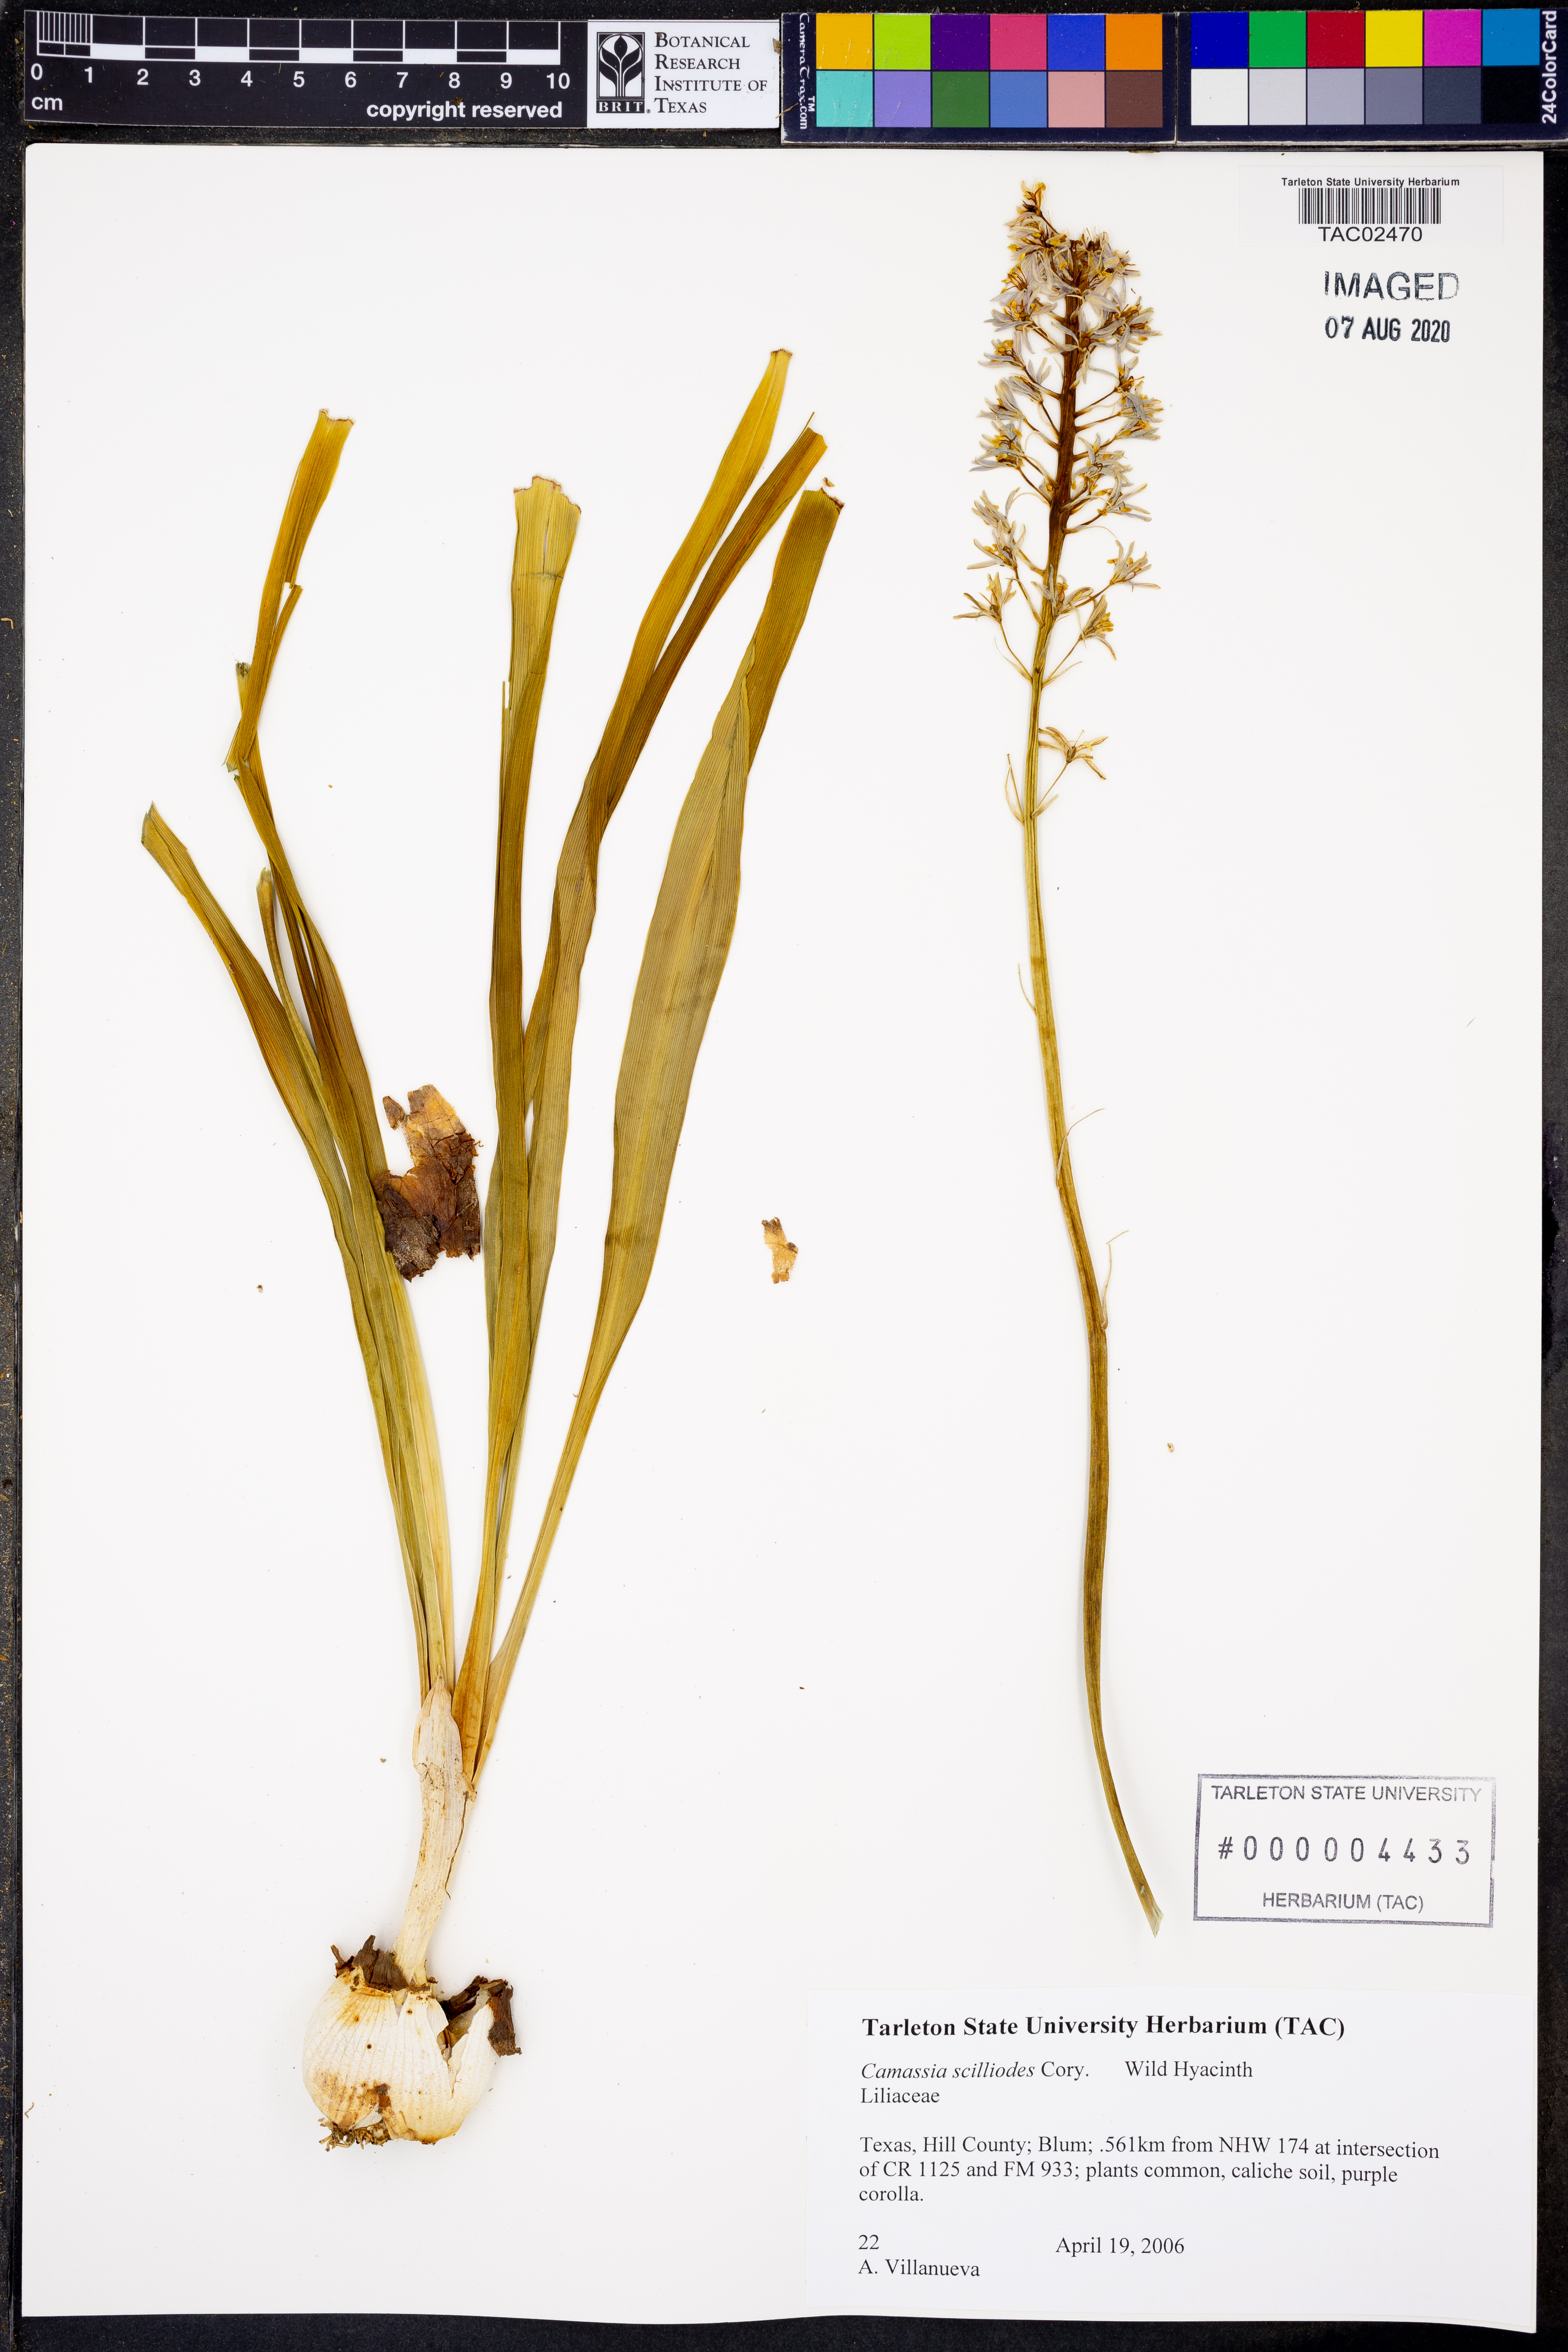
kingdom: Plantae
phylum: Tracheophyta
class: Liliopsida
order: Asparagales
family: Asparagaceae
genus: Camassia
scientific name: Camassia scilloides
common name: Wild hyacinth
